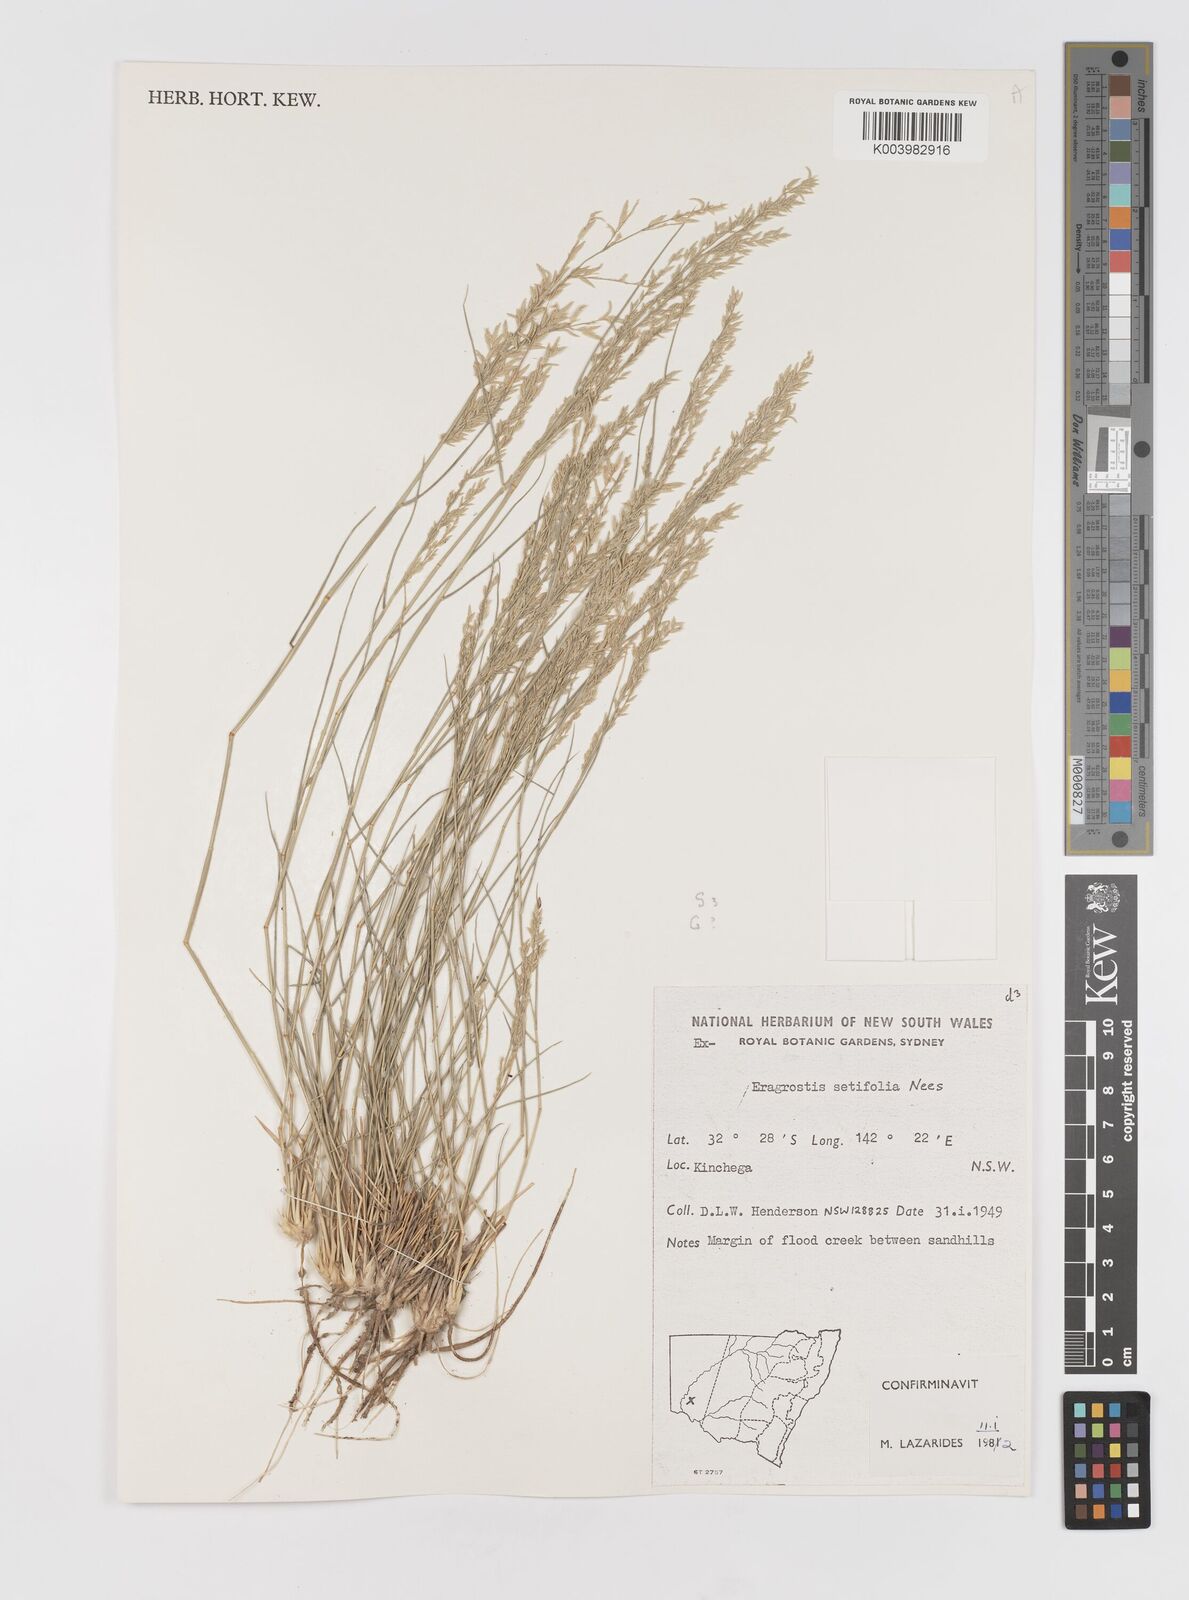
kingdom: Plantae
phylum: Tracheophyta
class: Liliopsida
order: Poales
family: Poaceae
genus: Eragrostis
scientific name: Eragrostis setifolia
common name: Bristleleaf lovegrass
